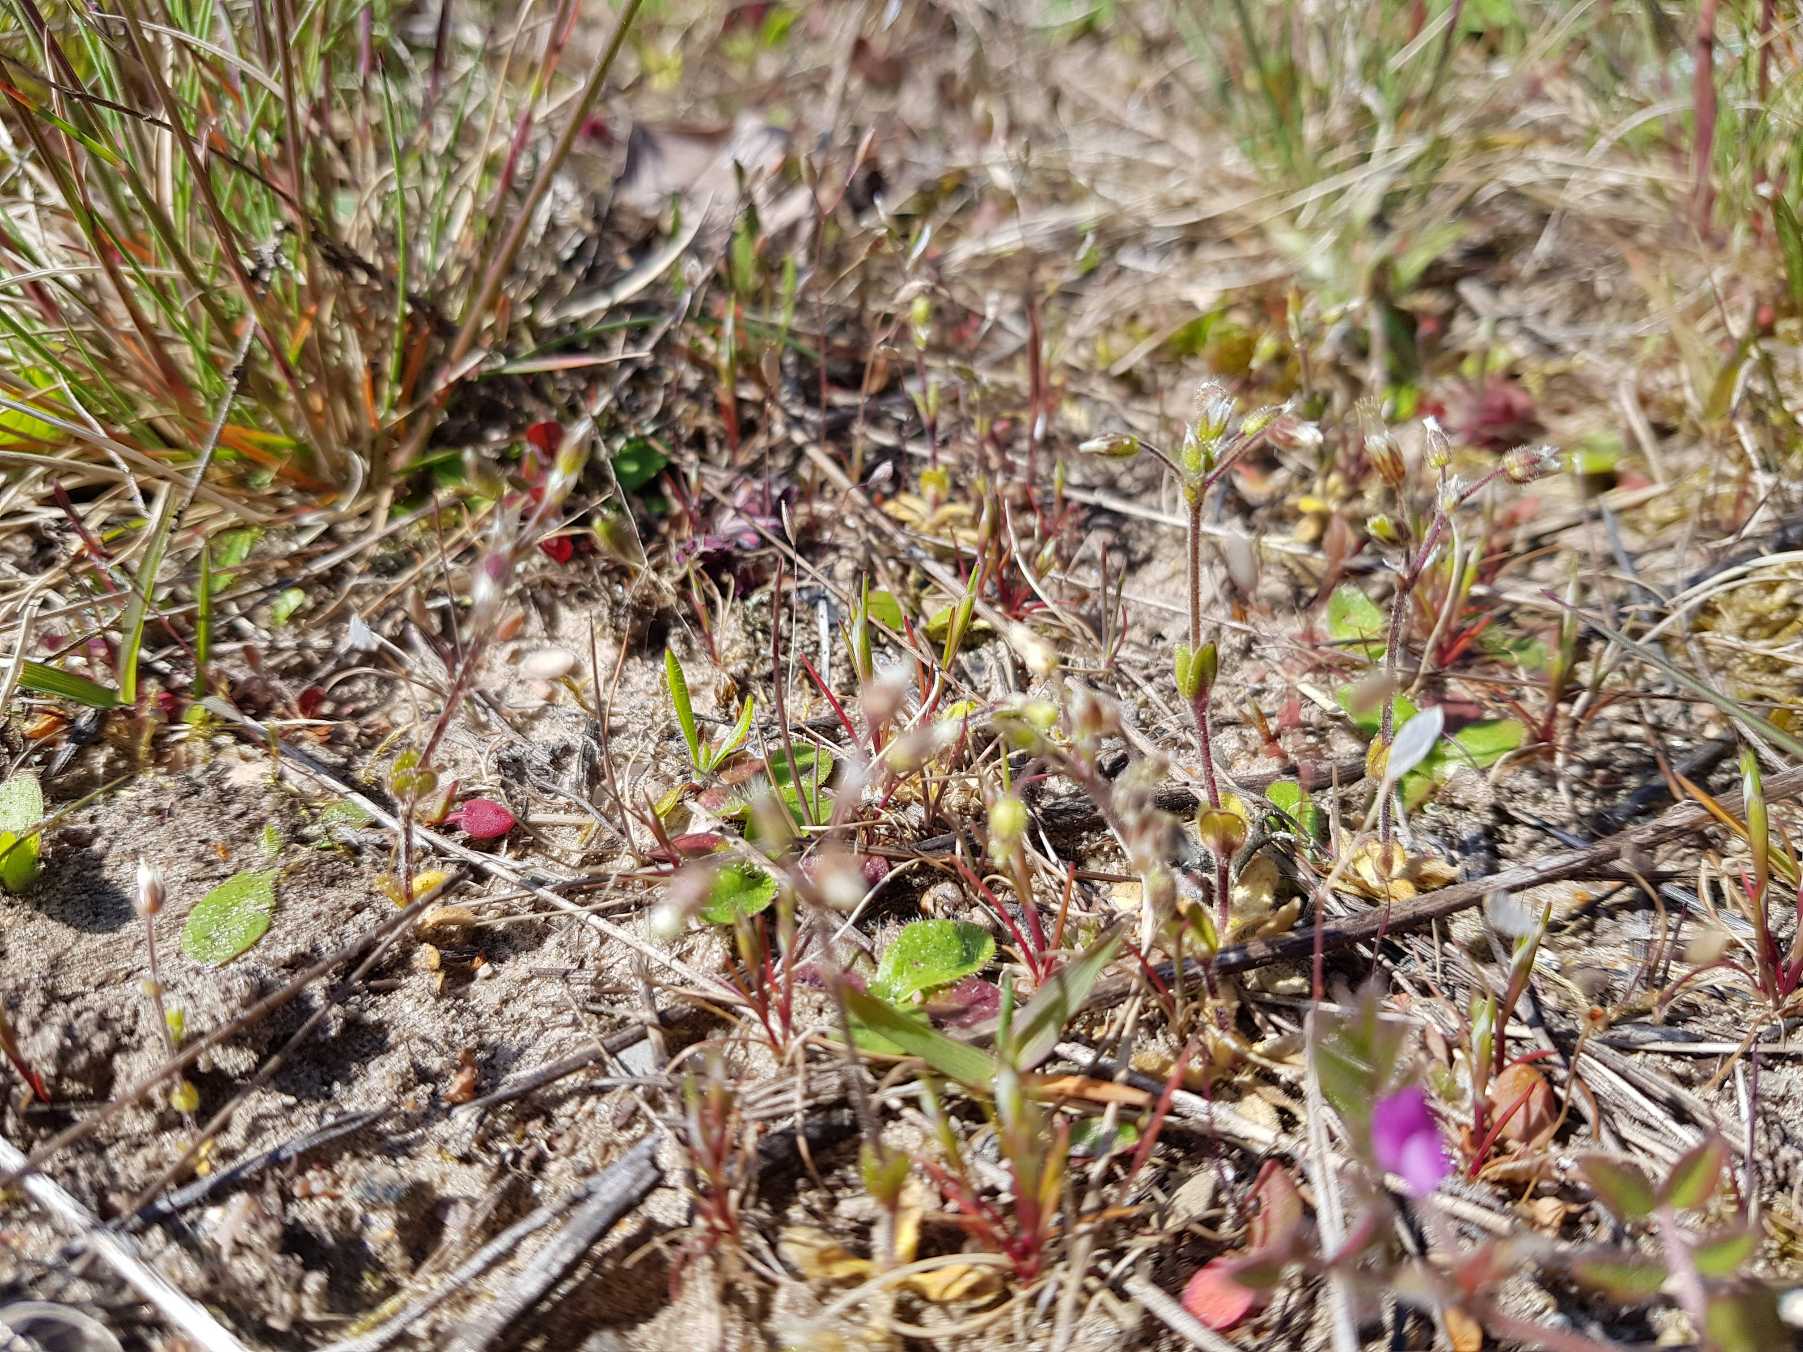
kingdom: Plantae
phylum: Tracheophyta
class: Magnoliopsida
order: Caryophyllales
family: Caryophyllaceae
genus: Cerastium
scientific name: Cerastium semidecandrum
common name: Femhannet hønsetarm
